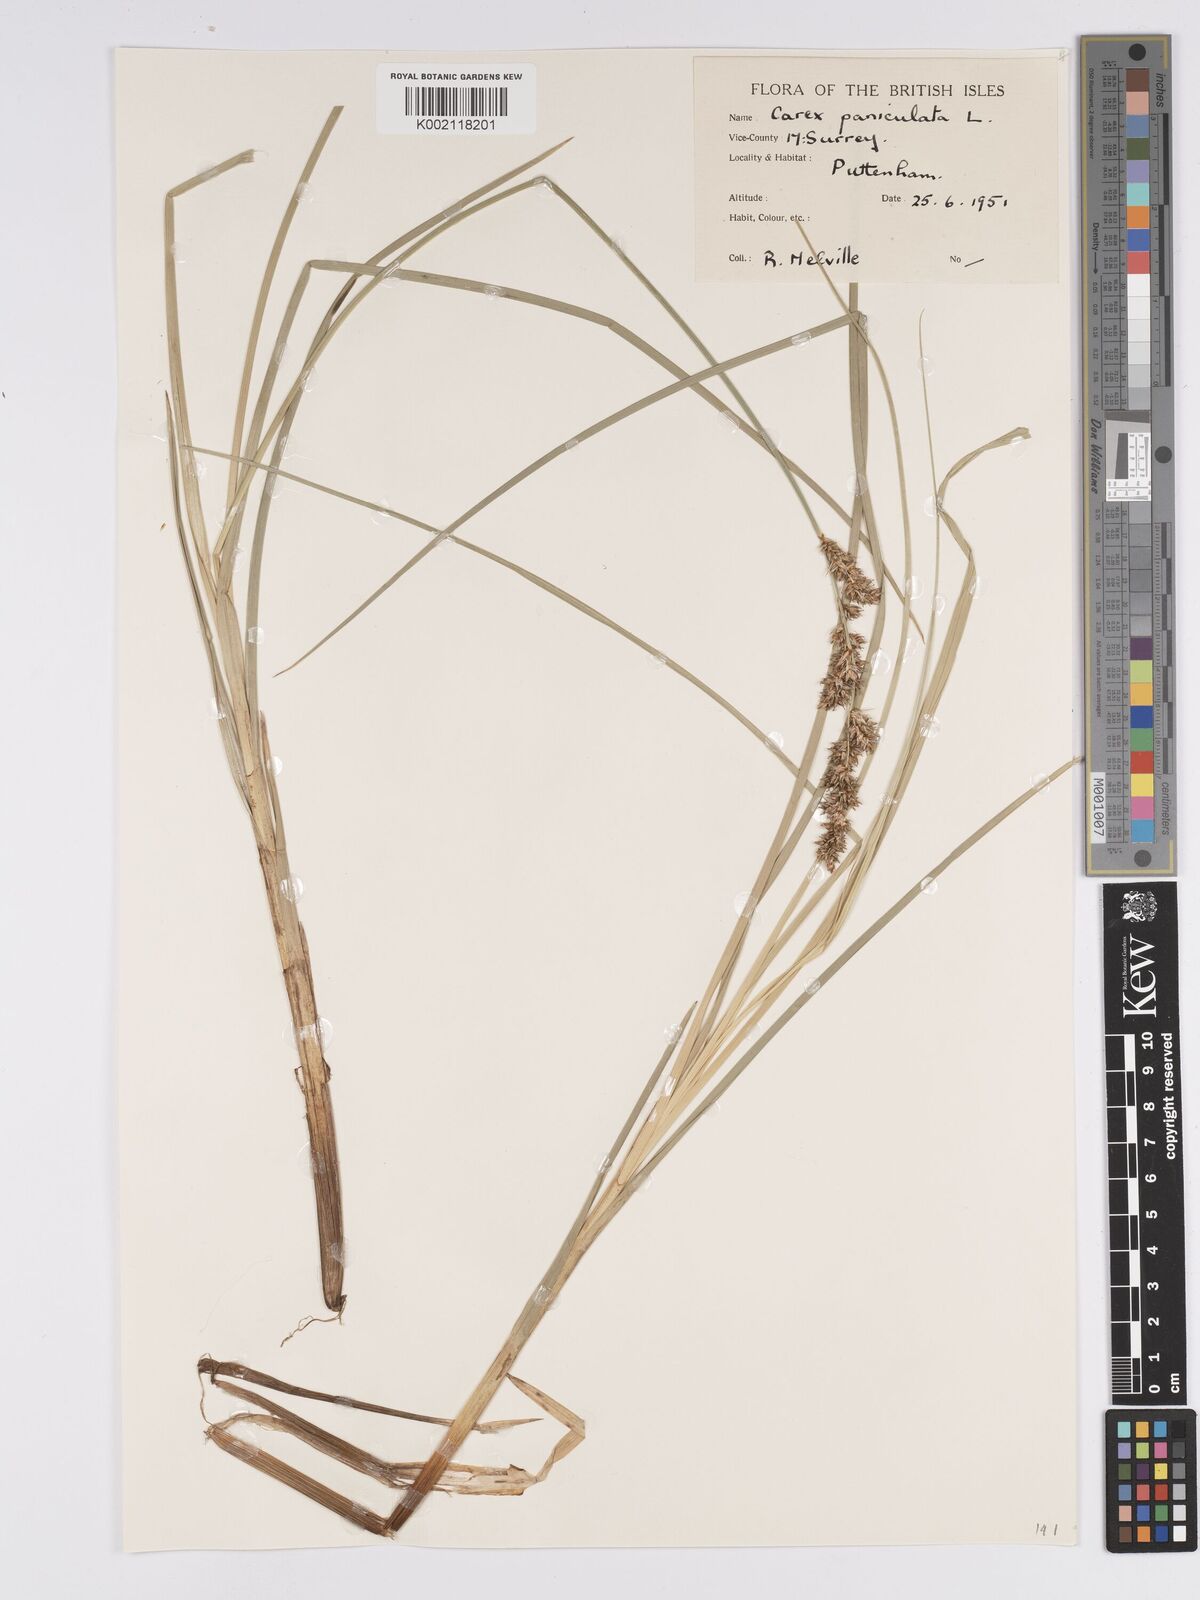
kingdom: Plantae
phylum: Tracheophyta
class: Liliopsida
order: Poales
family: Cyperaceae
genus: Carex
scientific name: Carex paniculata
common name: Greater tussock-sedge
